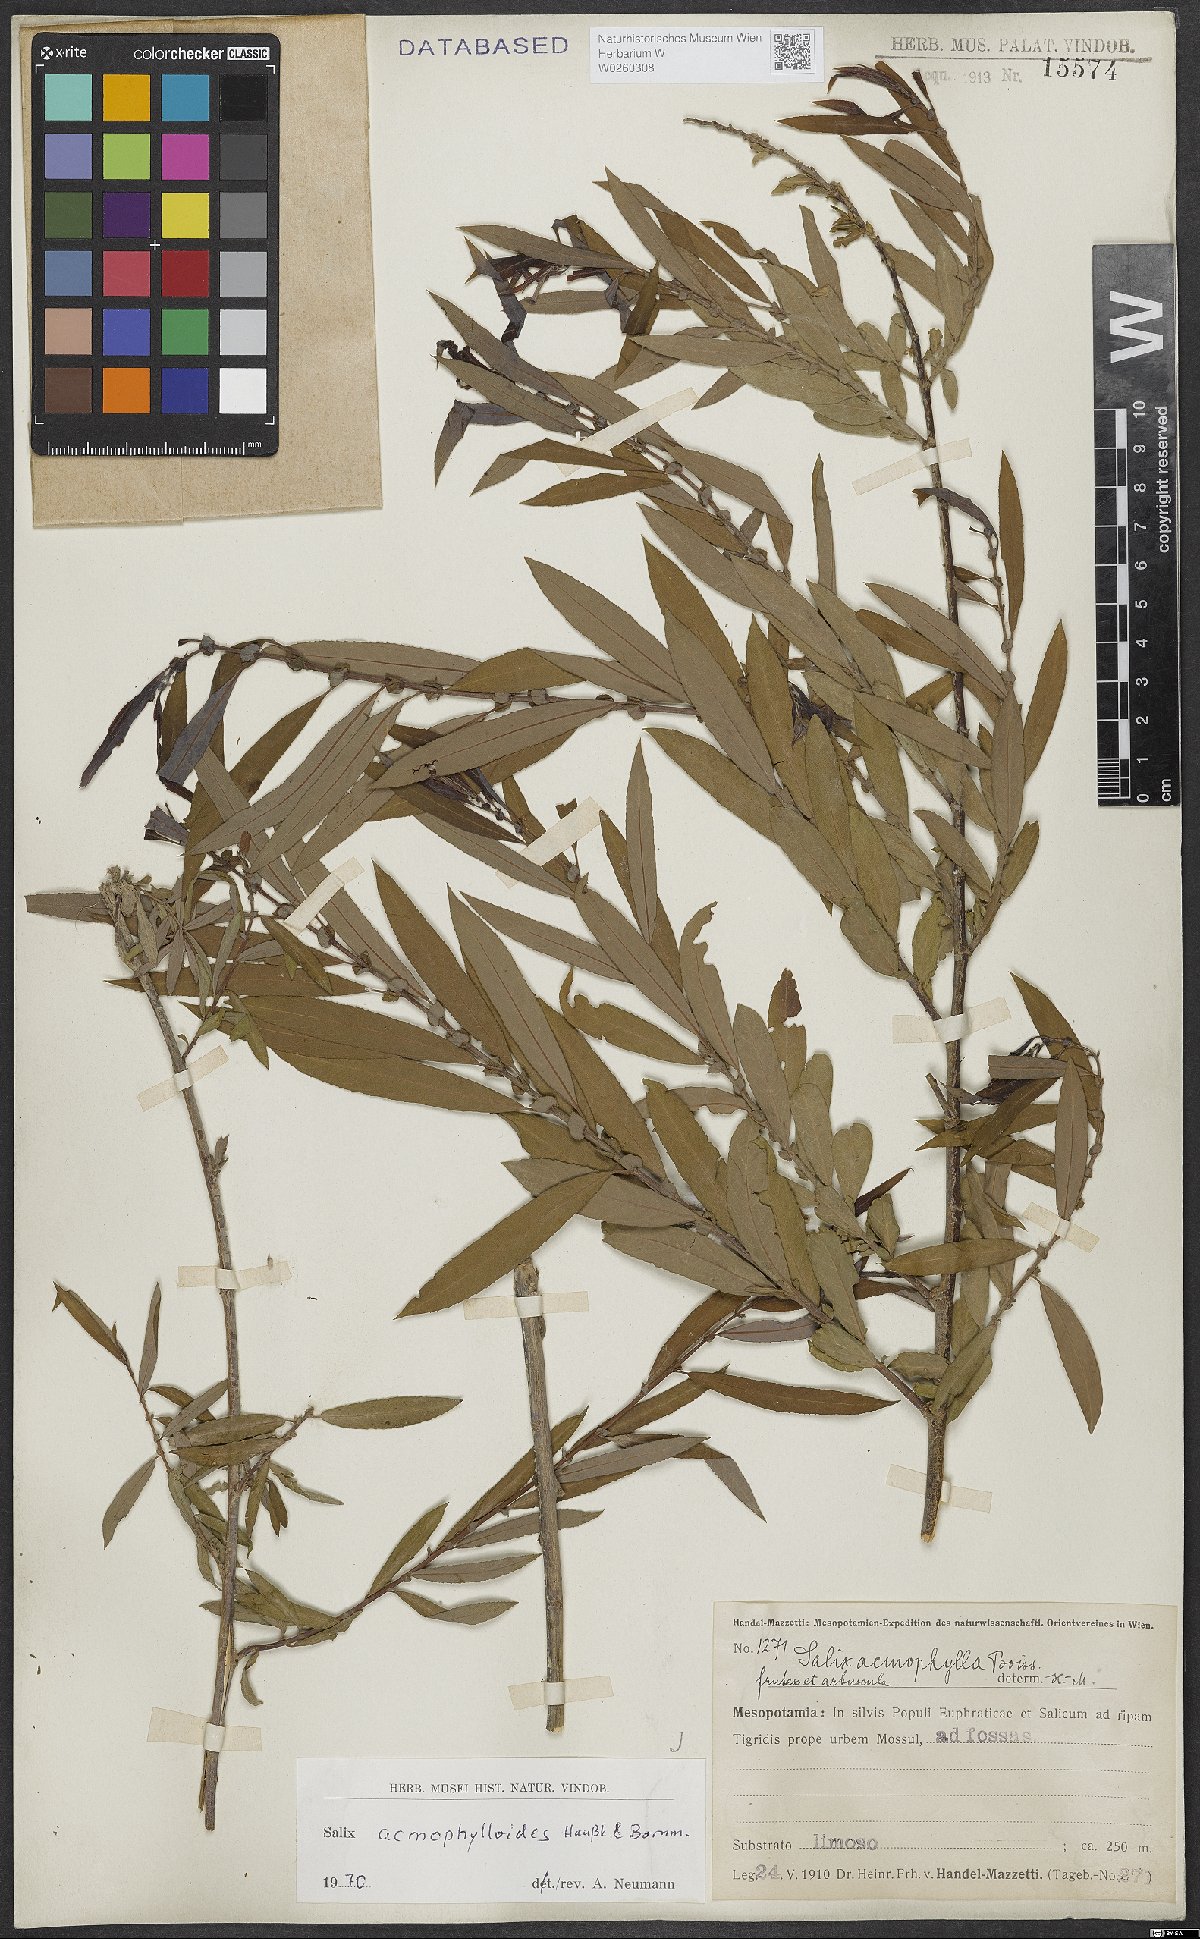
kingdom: Plantae
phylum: Tracheophyta
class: Magnoliopsida
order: Malpighiales
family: Salicaceae
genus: Salix
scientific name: Salix
